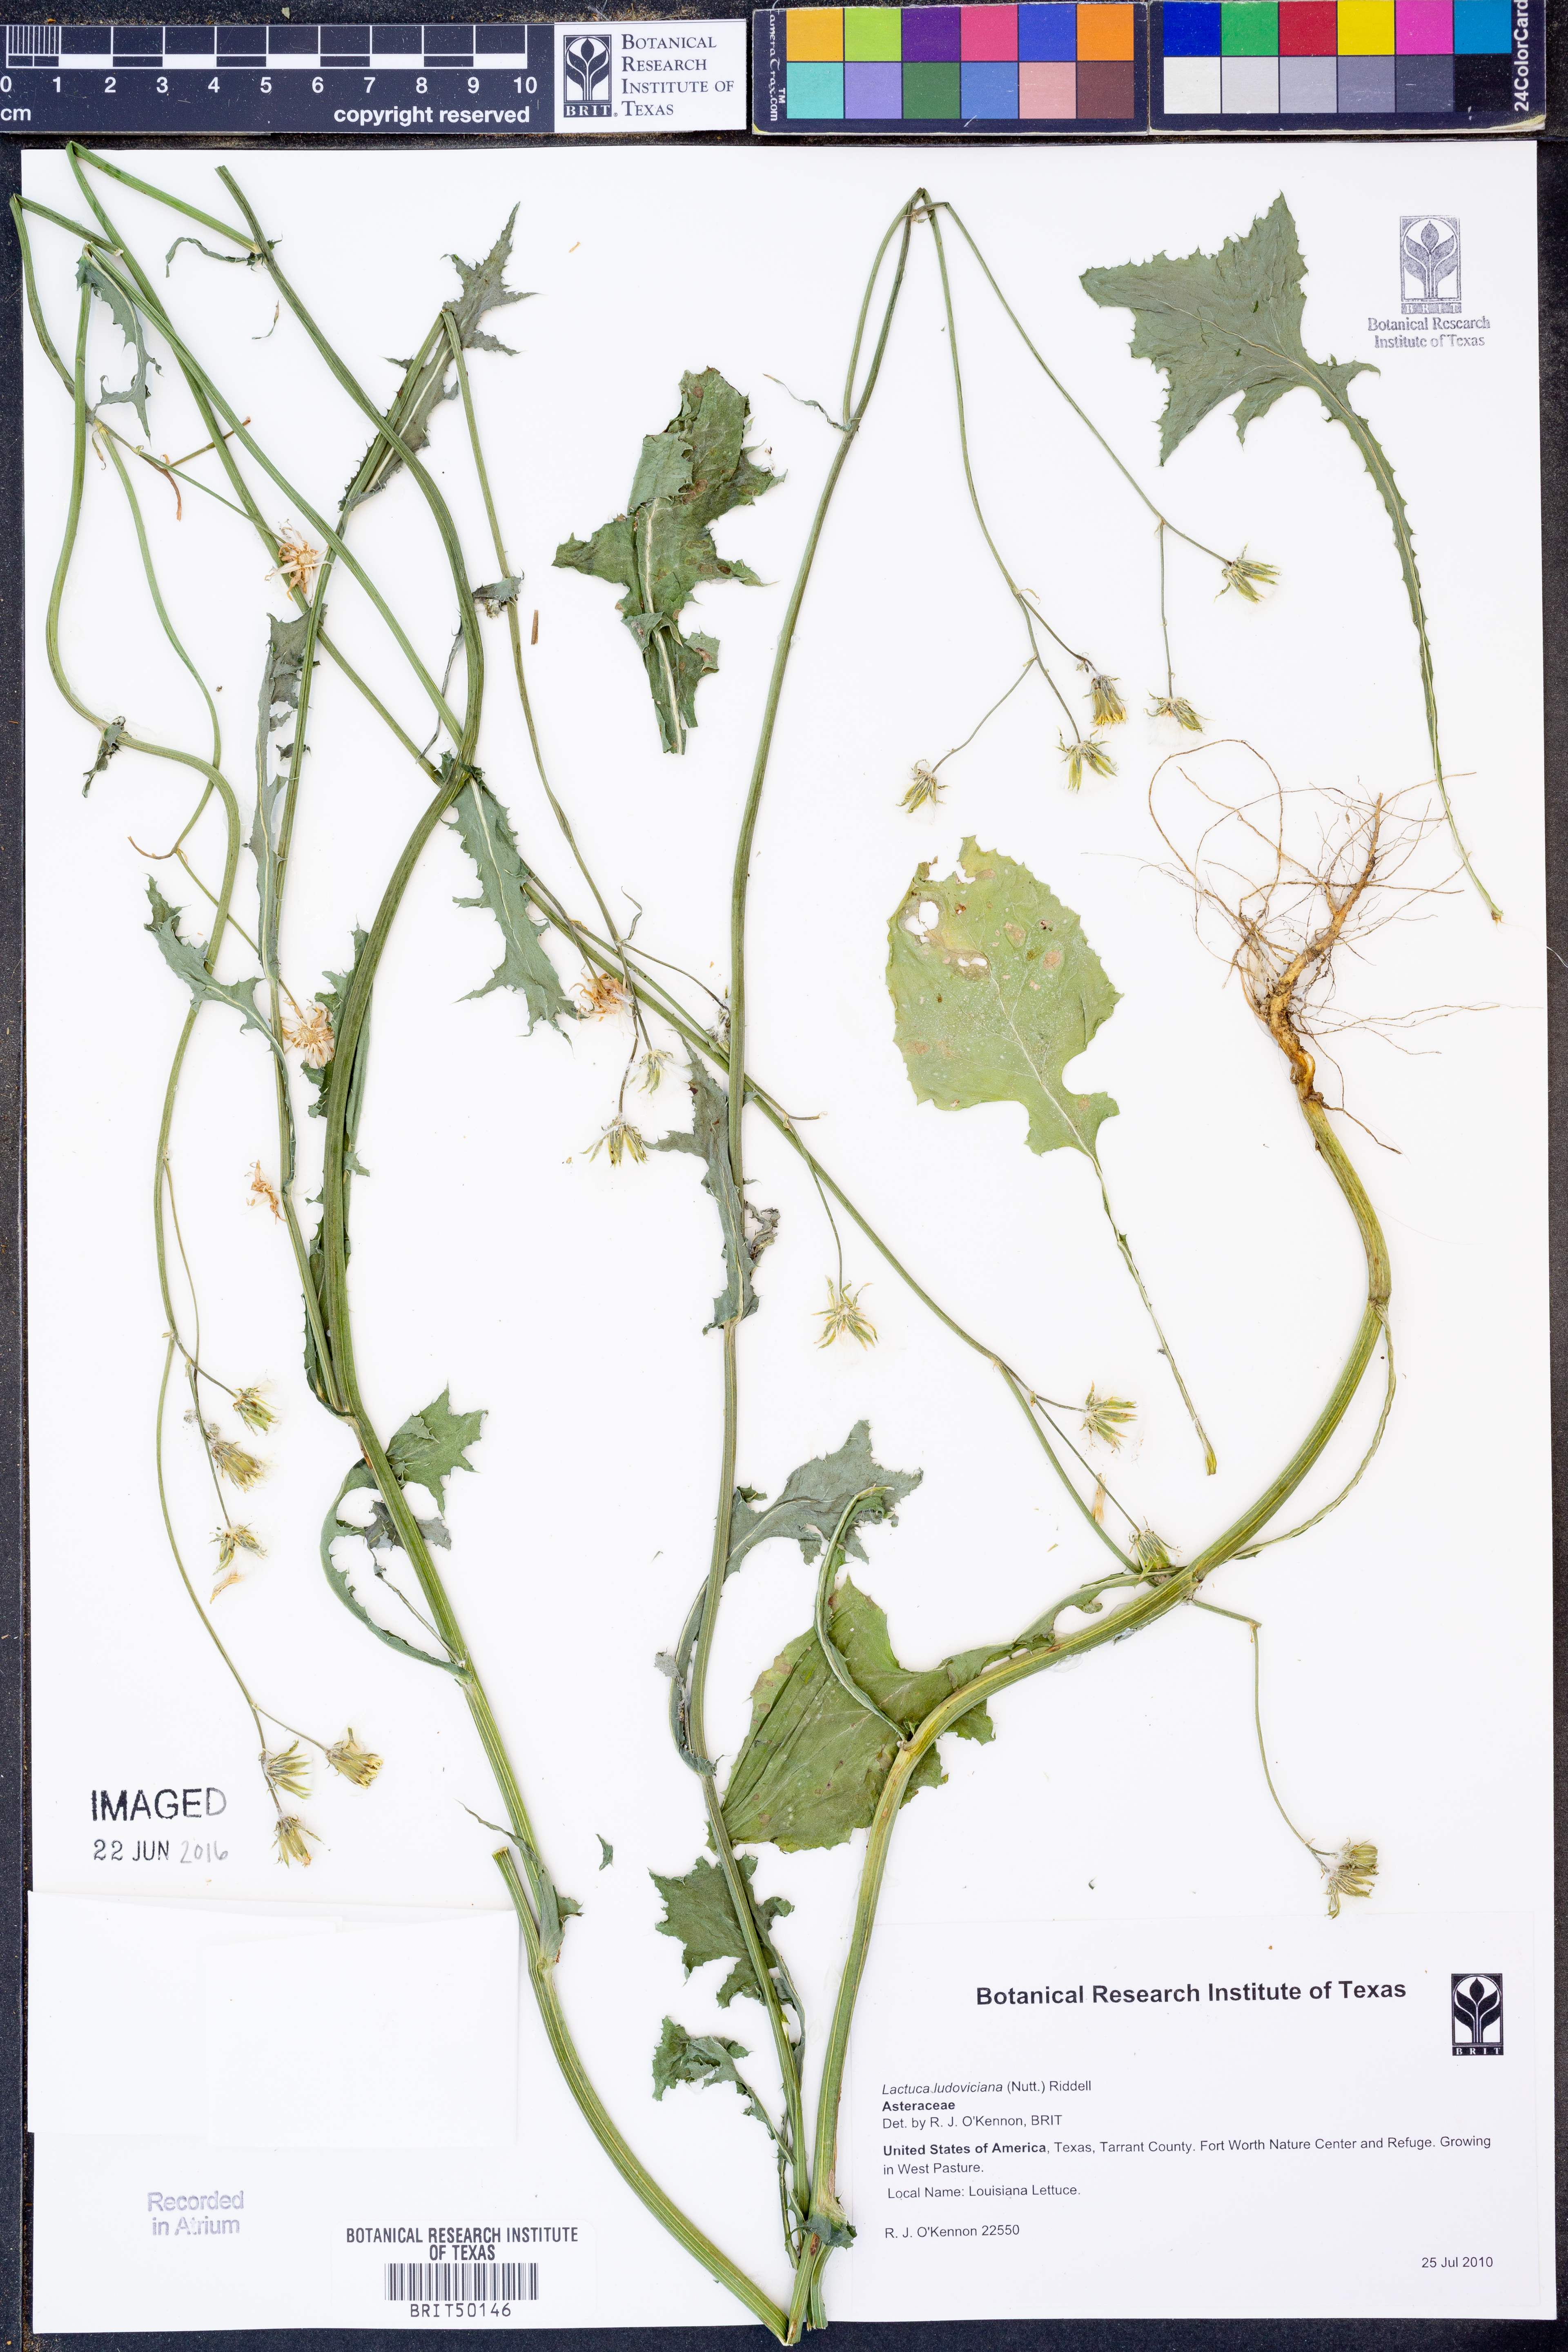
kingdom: Plantae
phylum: Tracheophyta
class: Magnoliopsida
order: Asterales
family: Asteraceae
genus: Lactuca
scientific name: Lactuca ludoviciana
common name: Louisiana lettuce
